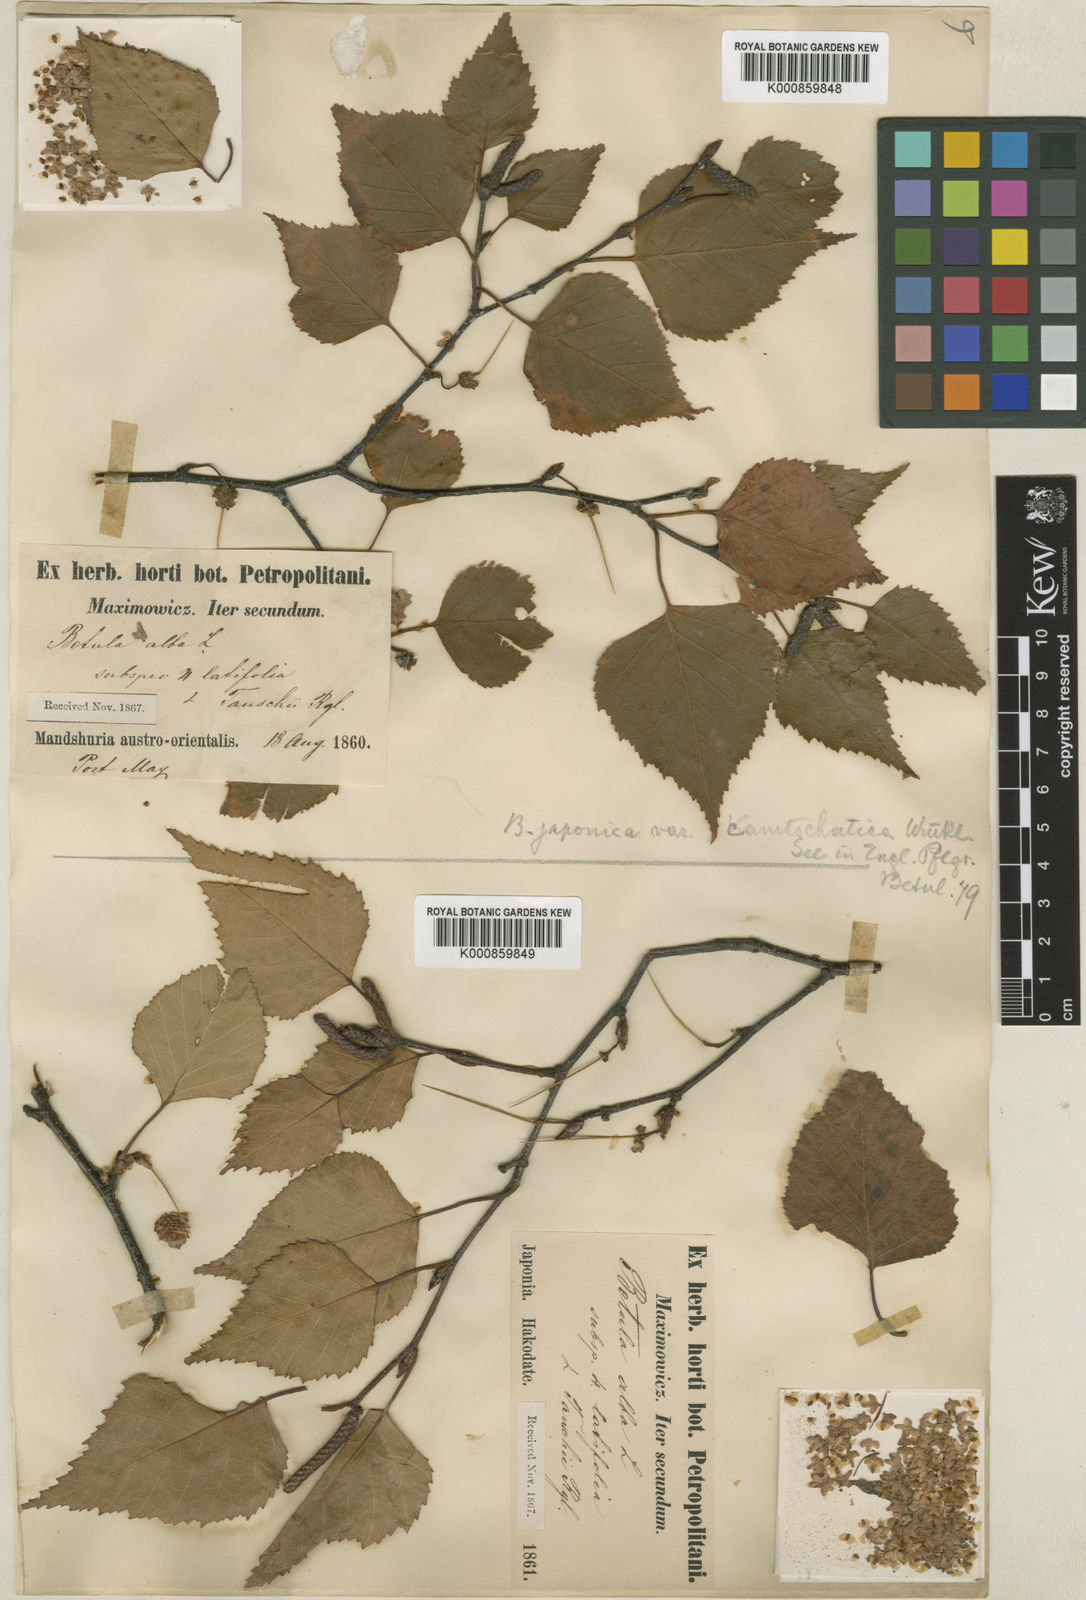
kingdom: Plantae
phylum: Tracheophyta
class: Magnoliopsida
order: Fagales
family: Betulaceae
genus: Betula
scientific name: Betula pendula
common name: Silver birch
